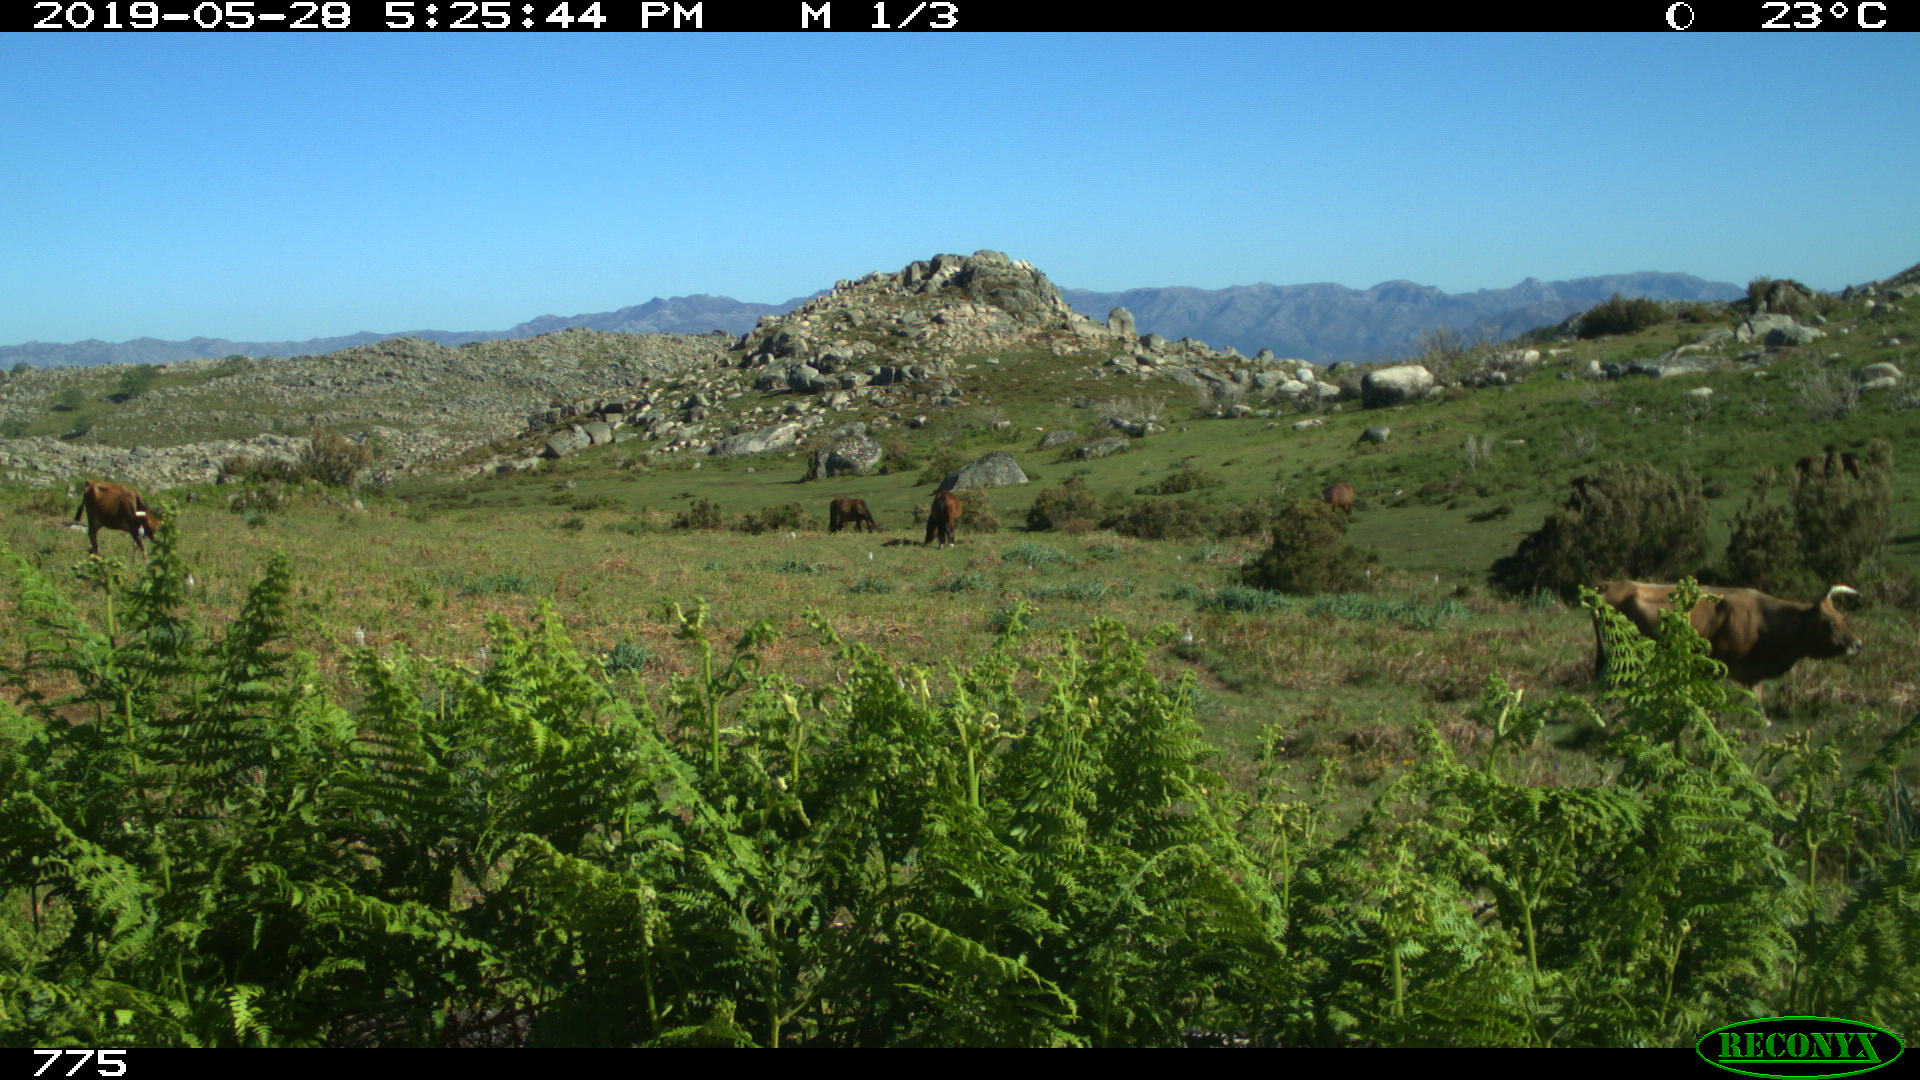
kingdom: Animalia
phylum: Chordata
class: Mammalia
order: Artiodactyla
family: Bovidae
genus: Bos
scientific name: Bos taurus
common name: Domesticated cattle
